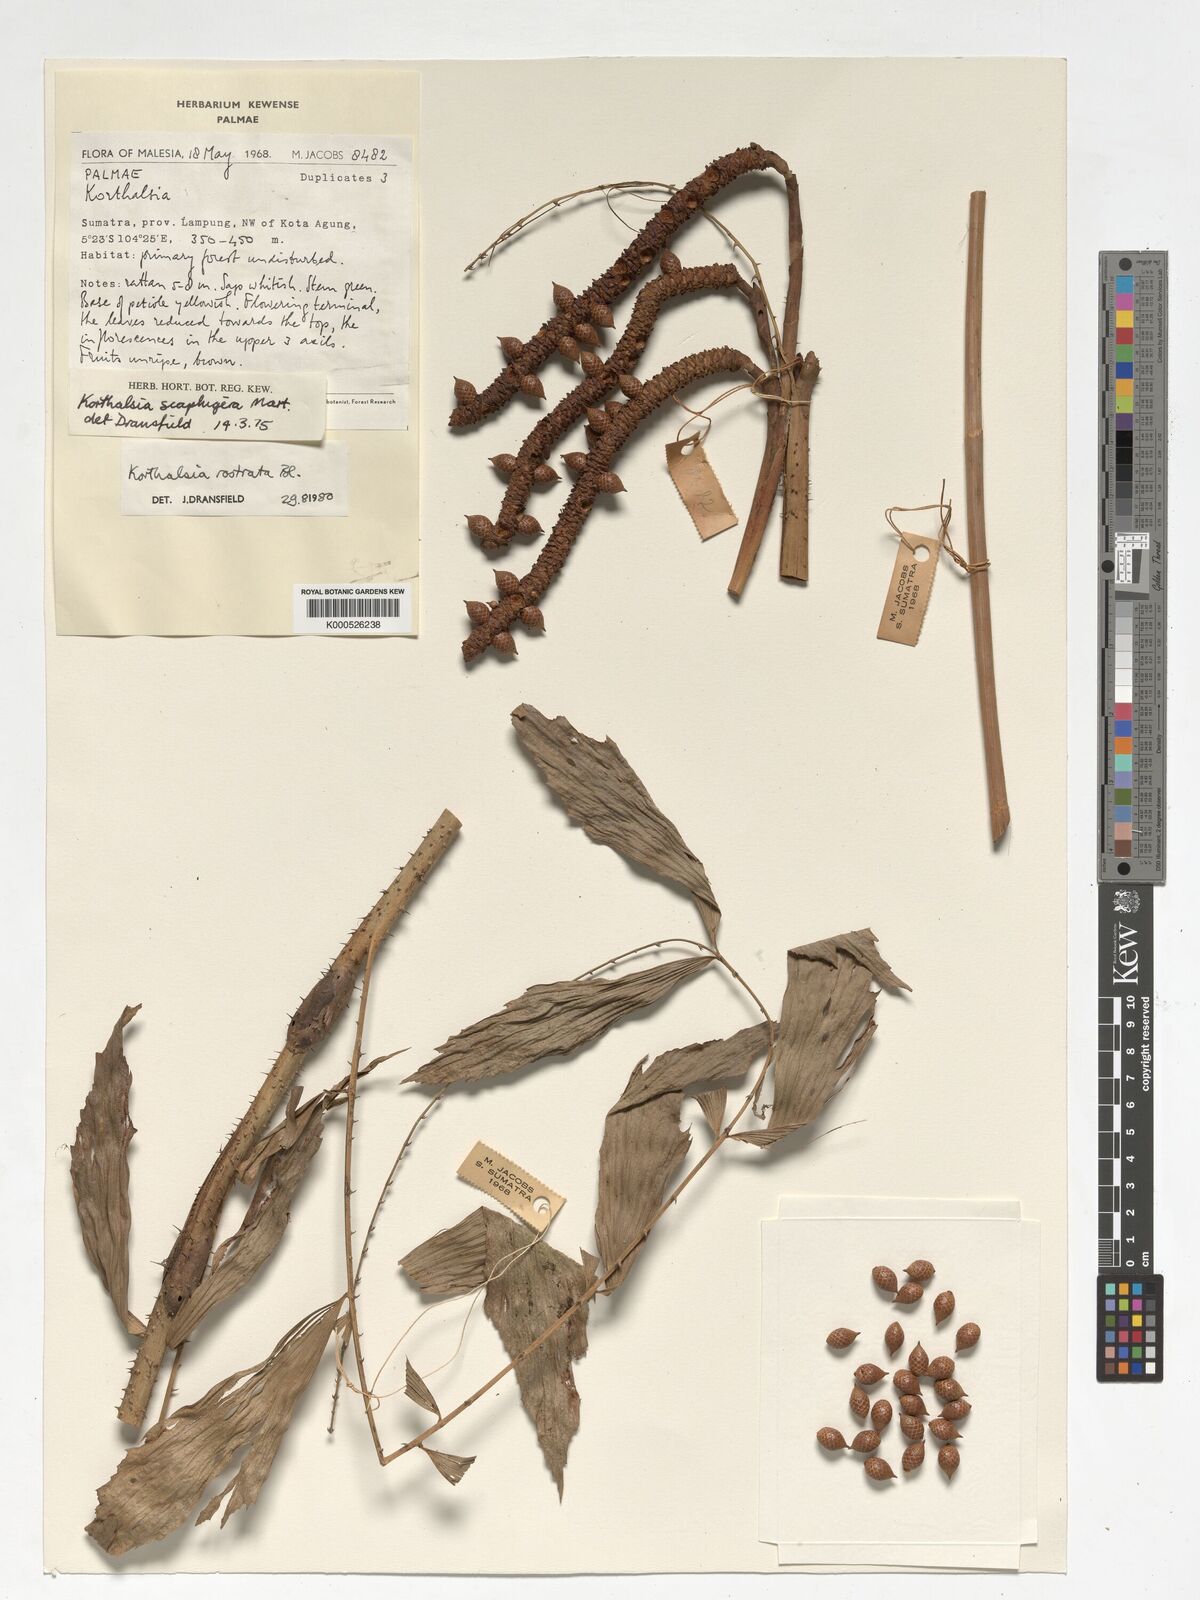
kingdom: Plantae
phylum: Tracheophyta
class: Liliopsida
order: Arecales
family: Arecaceae
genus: Korthalsia
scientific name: Korthalsia rostrata
